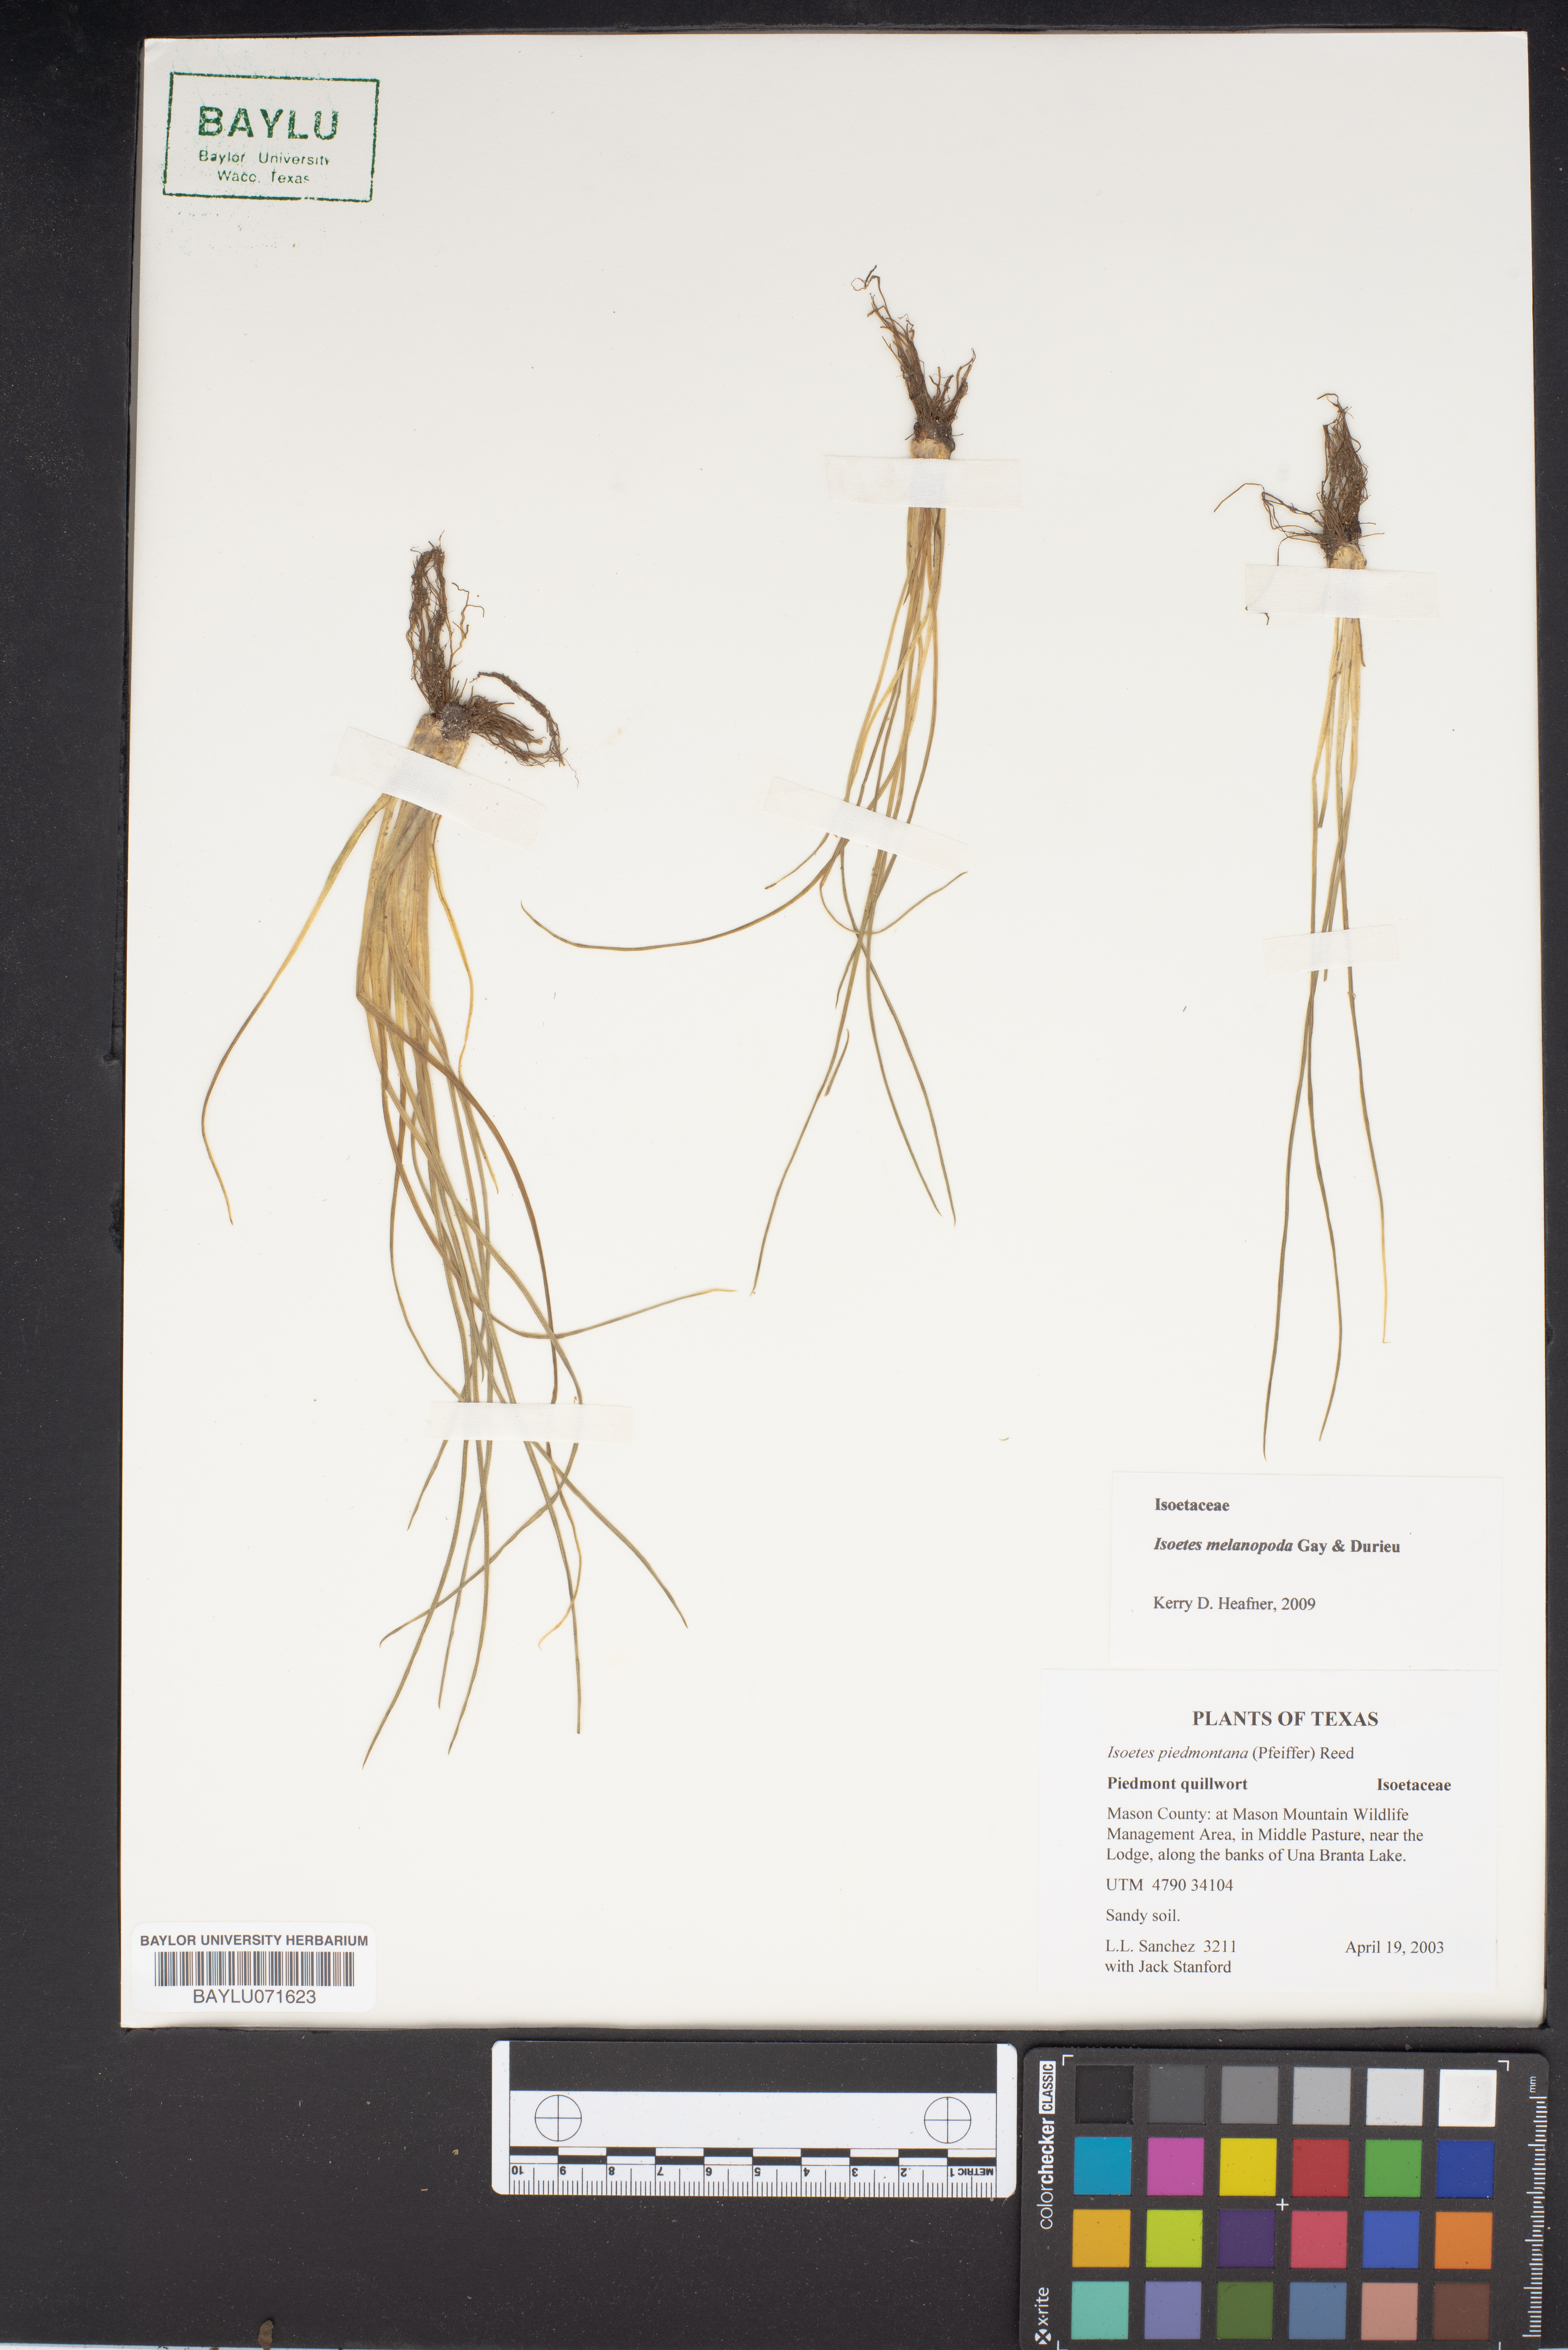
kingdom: Plantae
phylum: Tracheophyta
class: Lycopodiopsida
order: Isoetales
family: Isoetaceae
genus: Isoetes
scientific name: Isoetes virginica
